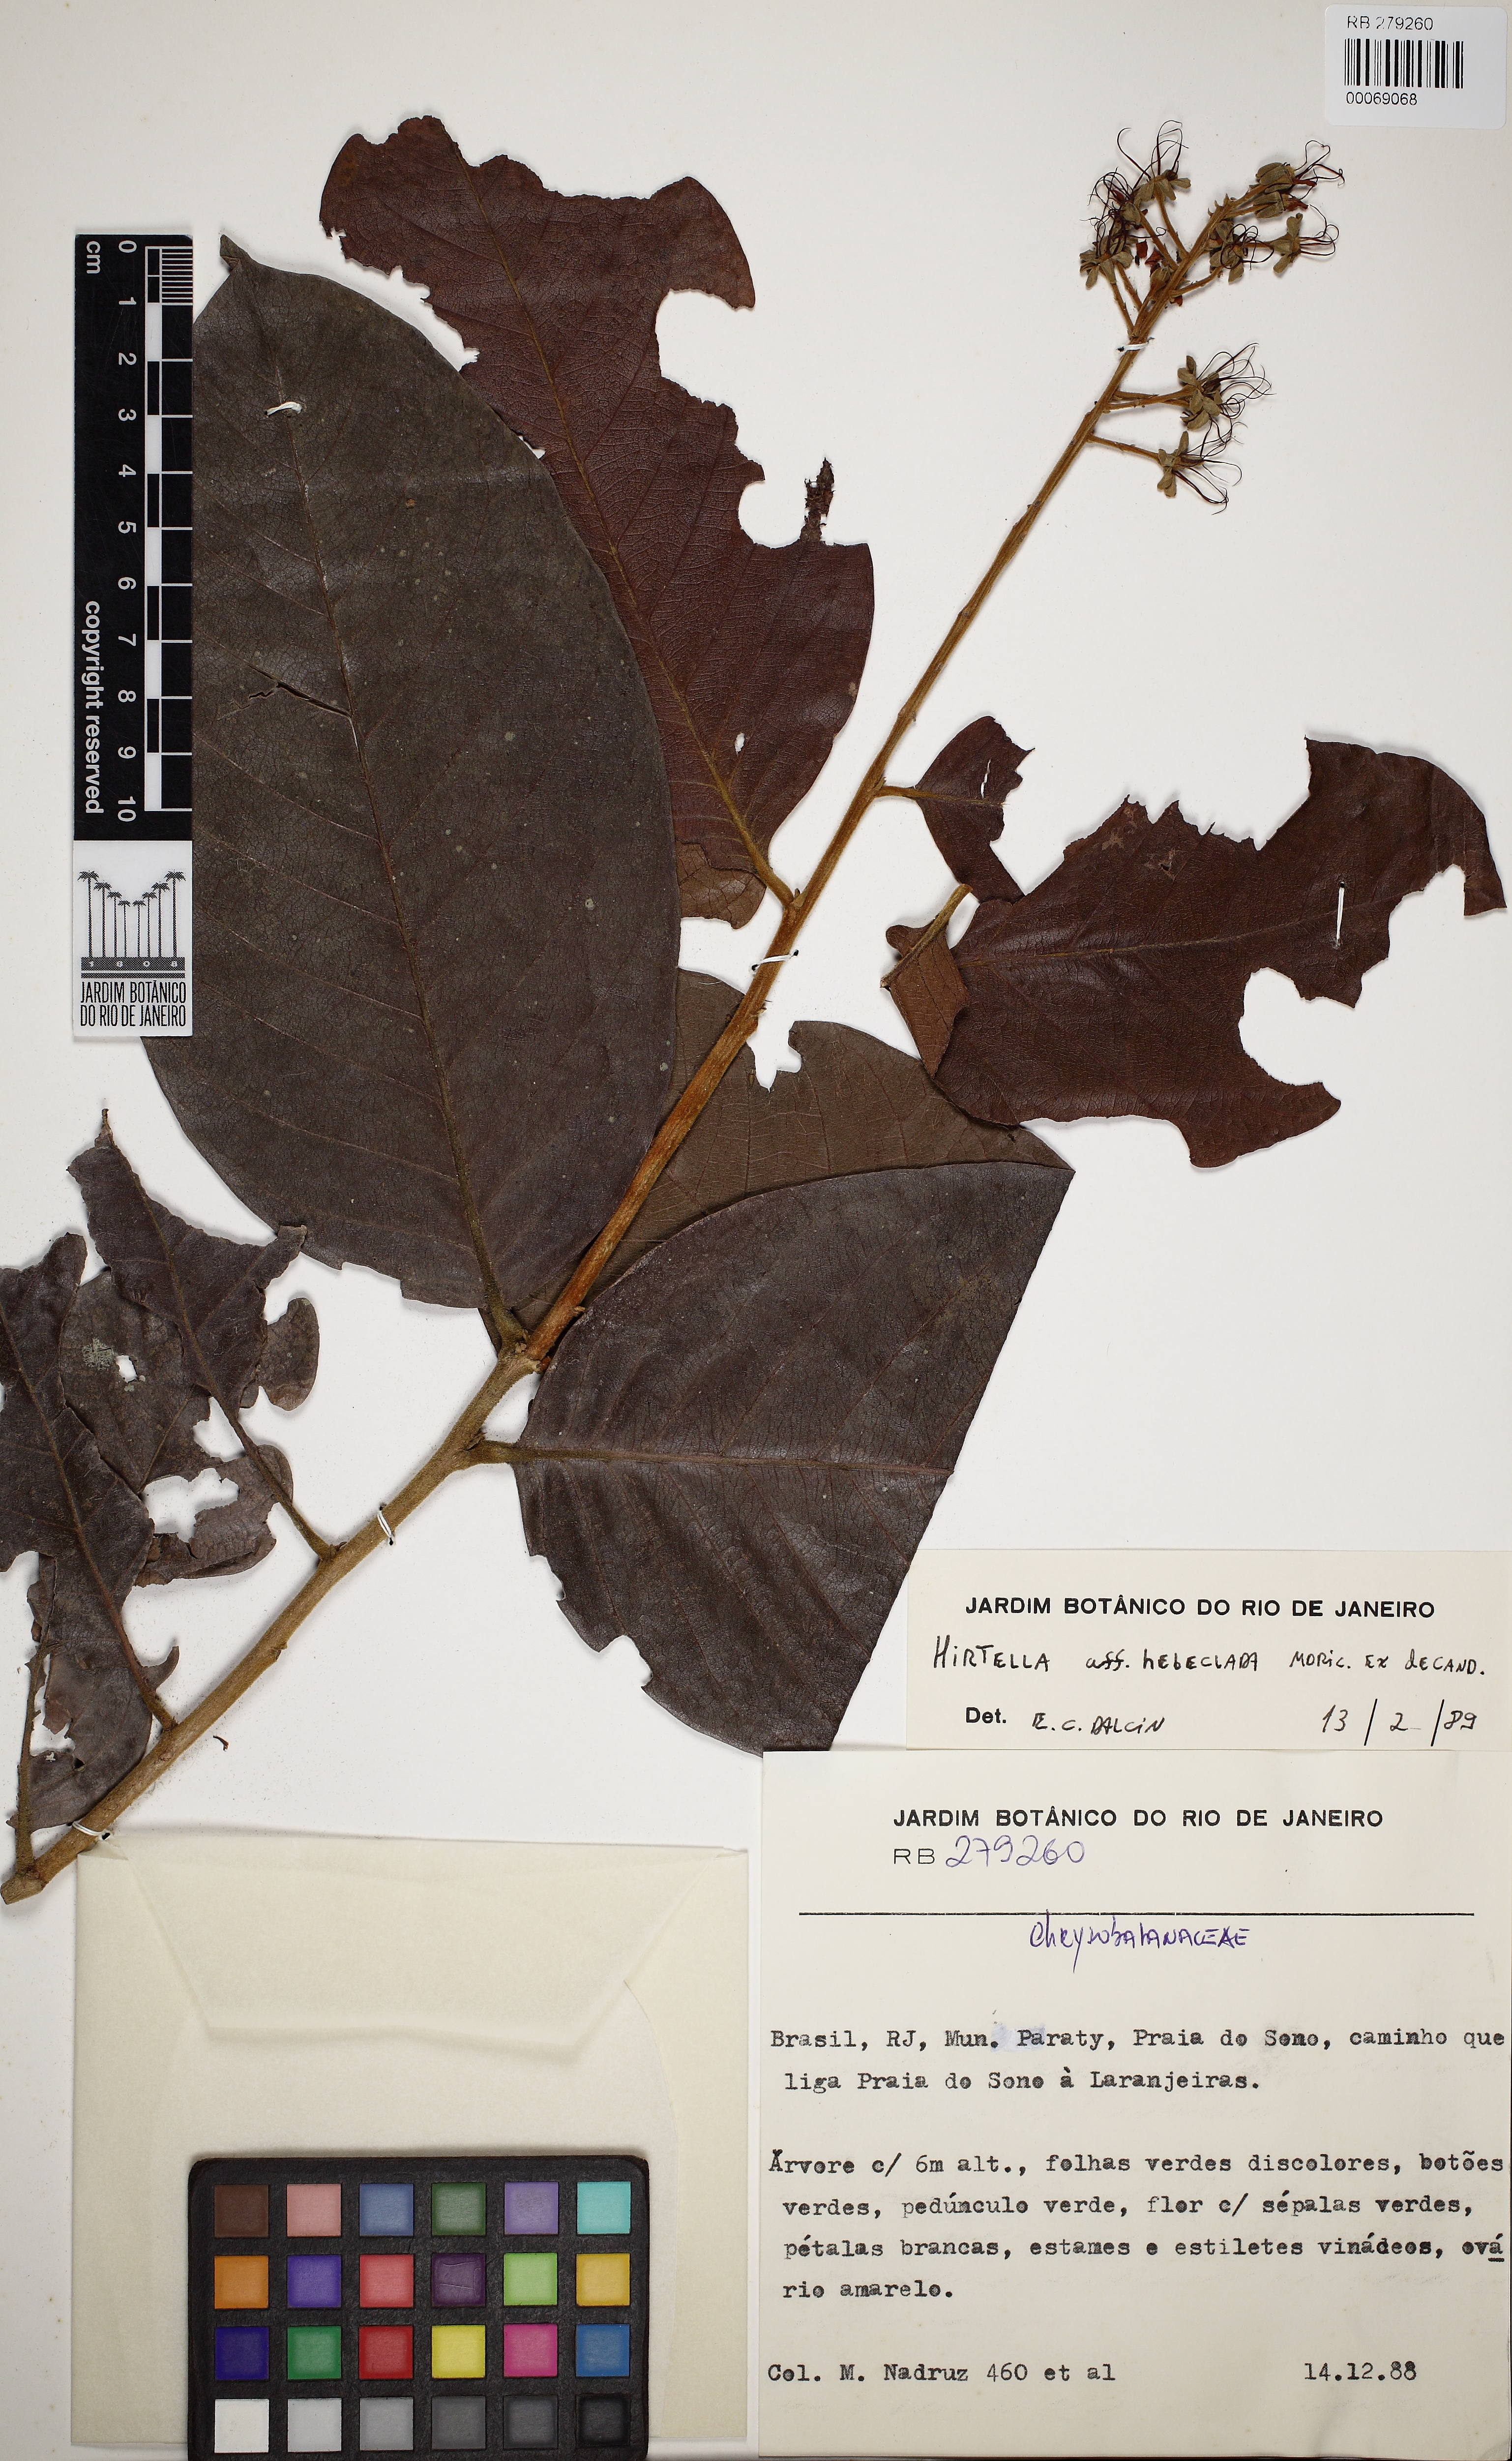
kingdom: Plantae
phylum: Tracheophyta
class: Magnoliopsida
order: Malpighiales
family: Chrysobalanaceae
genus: Hirtella
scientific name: Hirtella hebeclada
